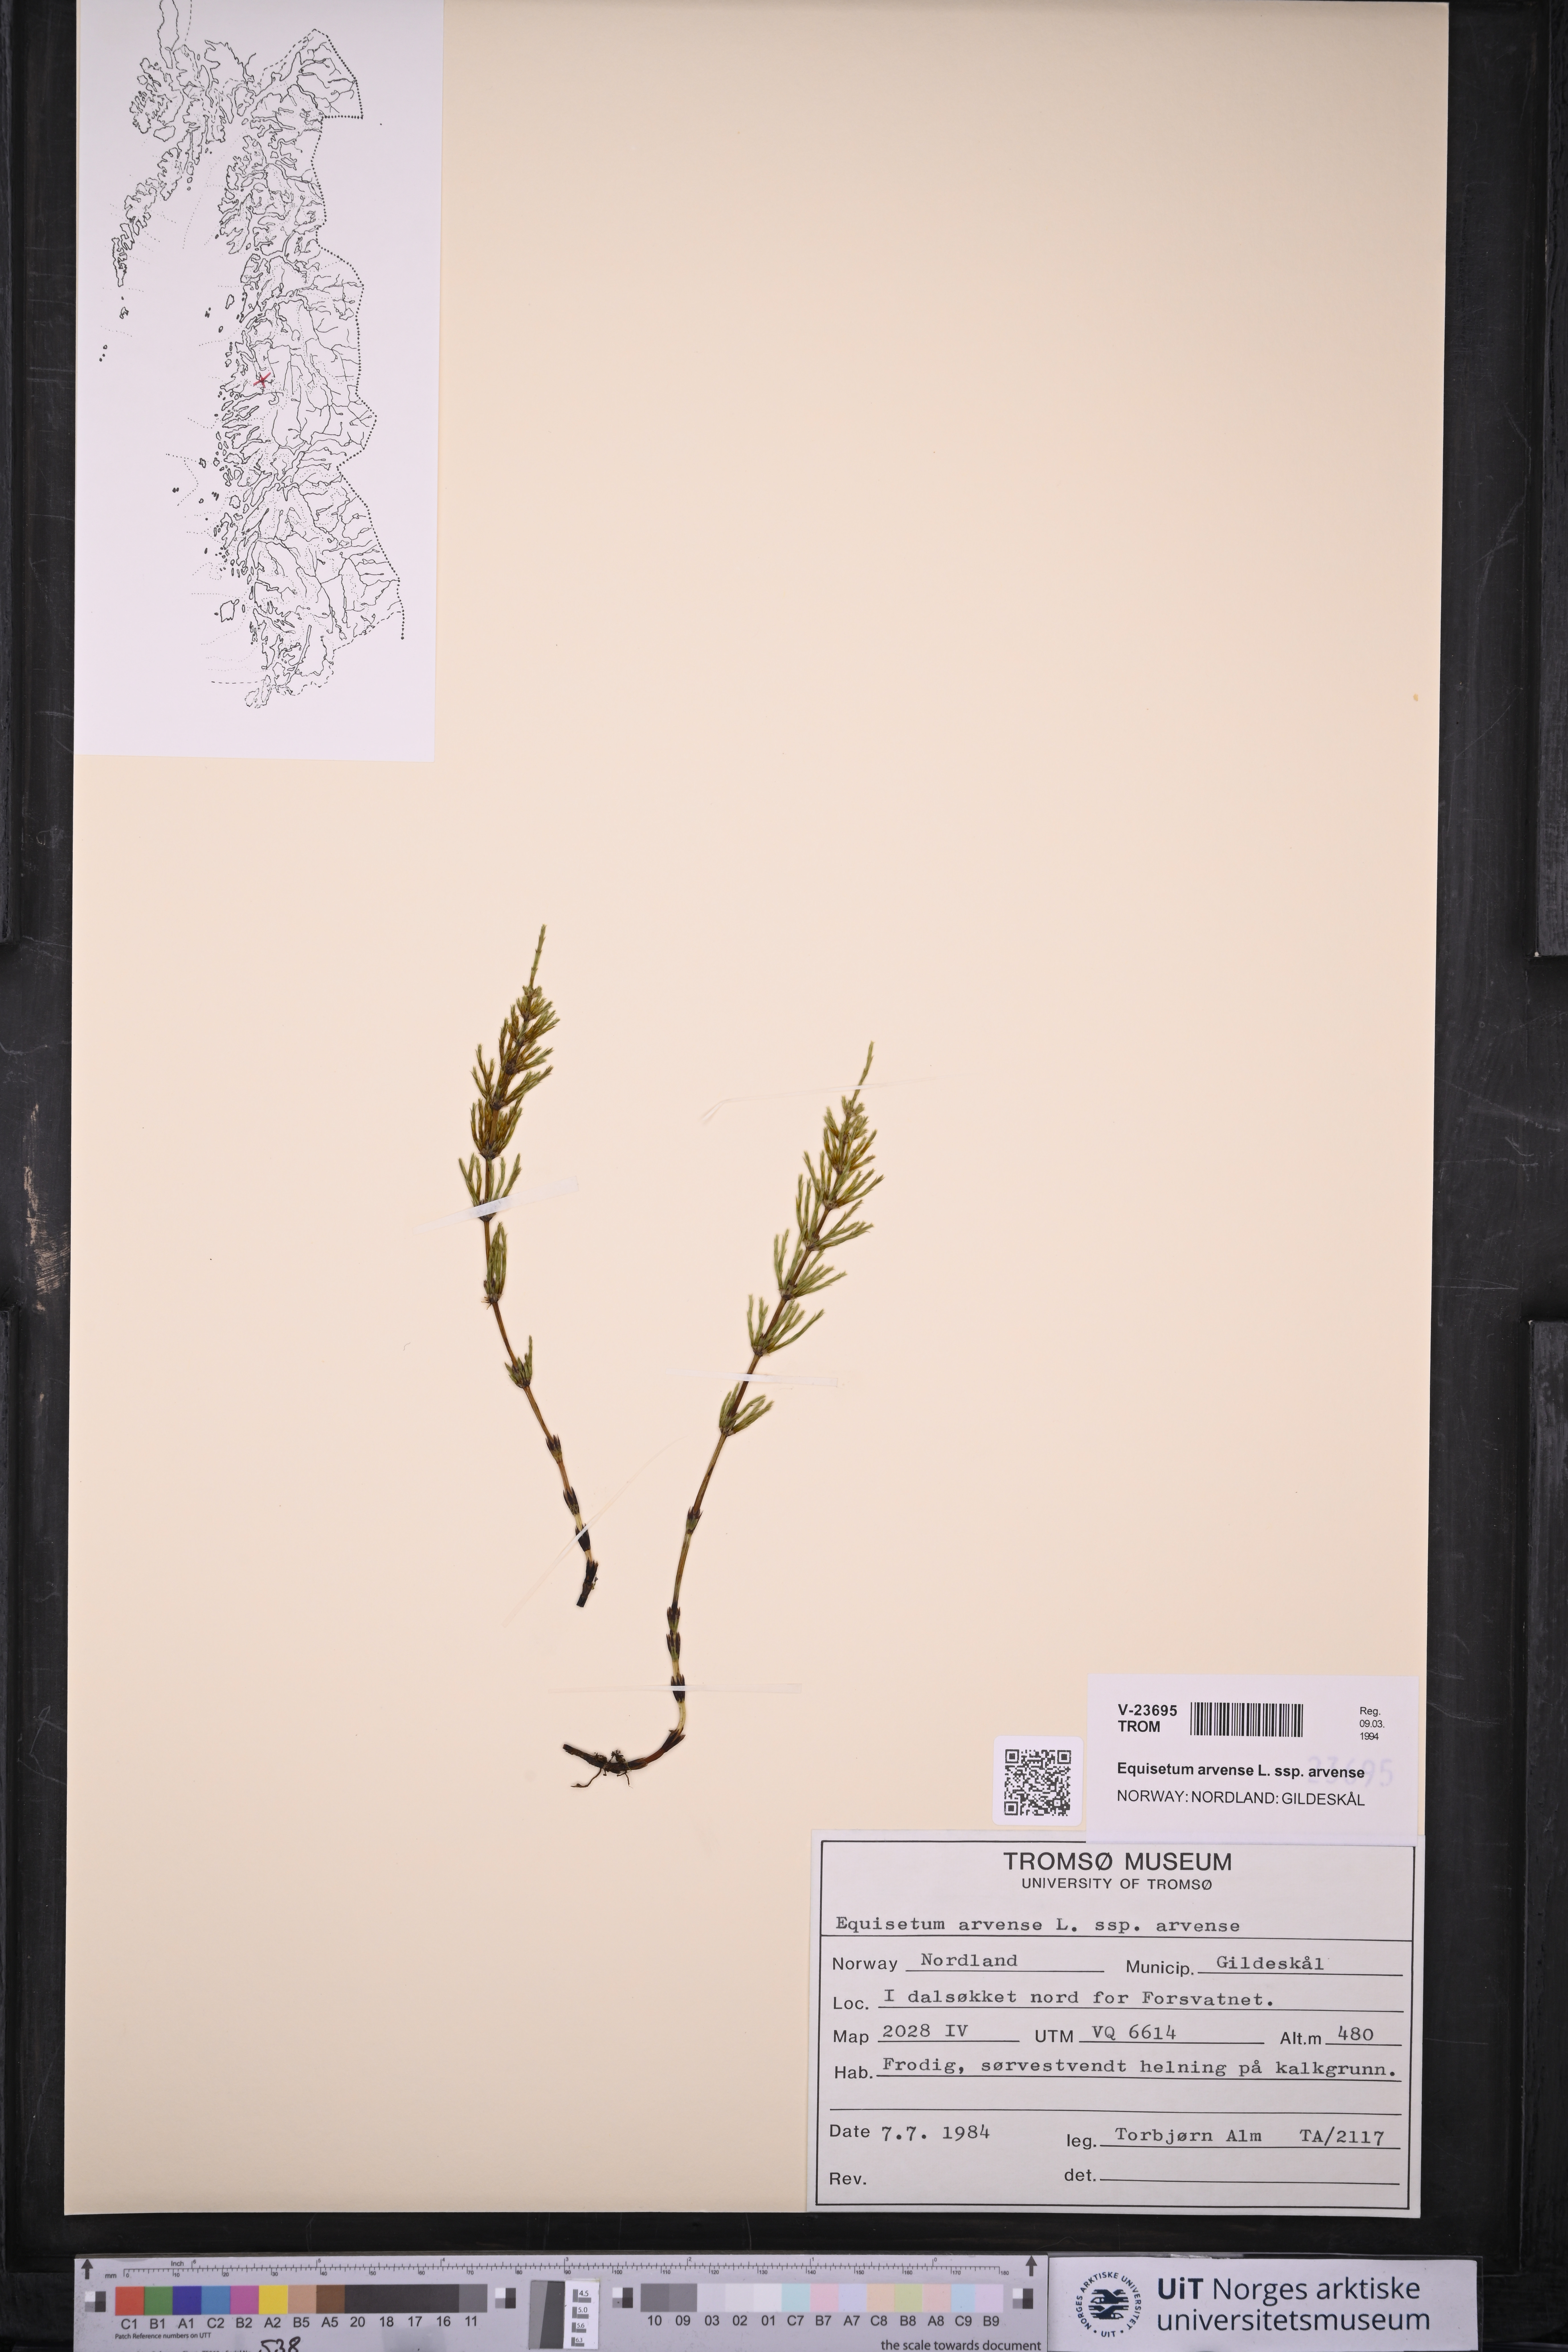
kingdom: Plantae
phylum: Tracheophyta
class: Polypodiopsida
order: Equisetales
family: Equisetaceae
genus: Equisetum
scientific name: Equisetum arvense
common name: Field horsetail
